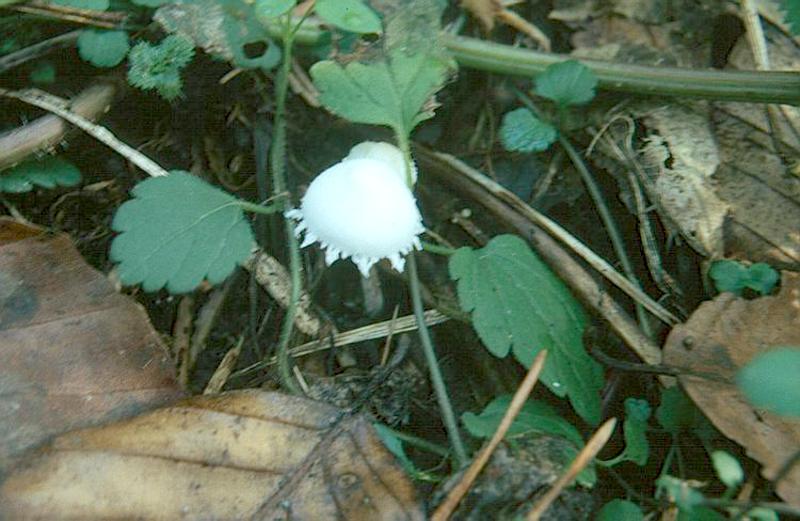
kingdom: Fungi
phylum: Basidiomycota
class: Agaricomycetes
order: Agaricales
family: Agaricaceae
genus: Cystolepiota
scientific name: Cystolepiota seminuda
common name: Bearded dapperling
